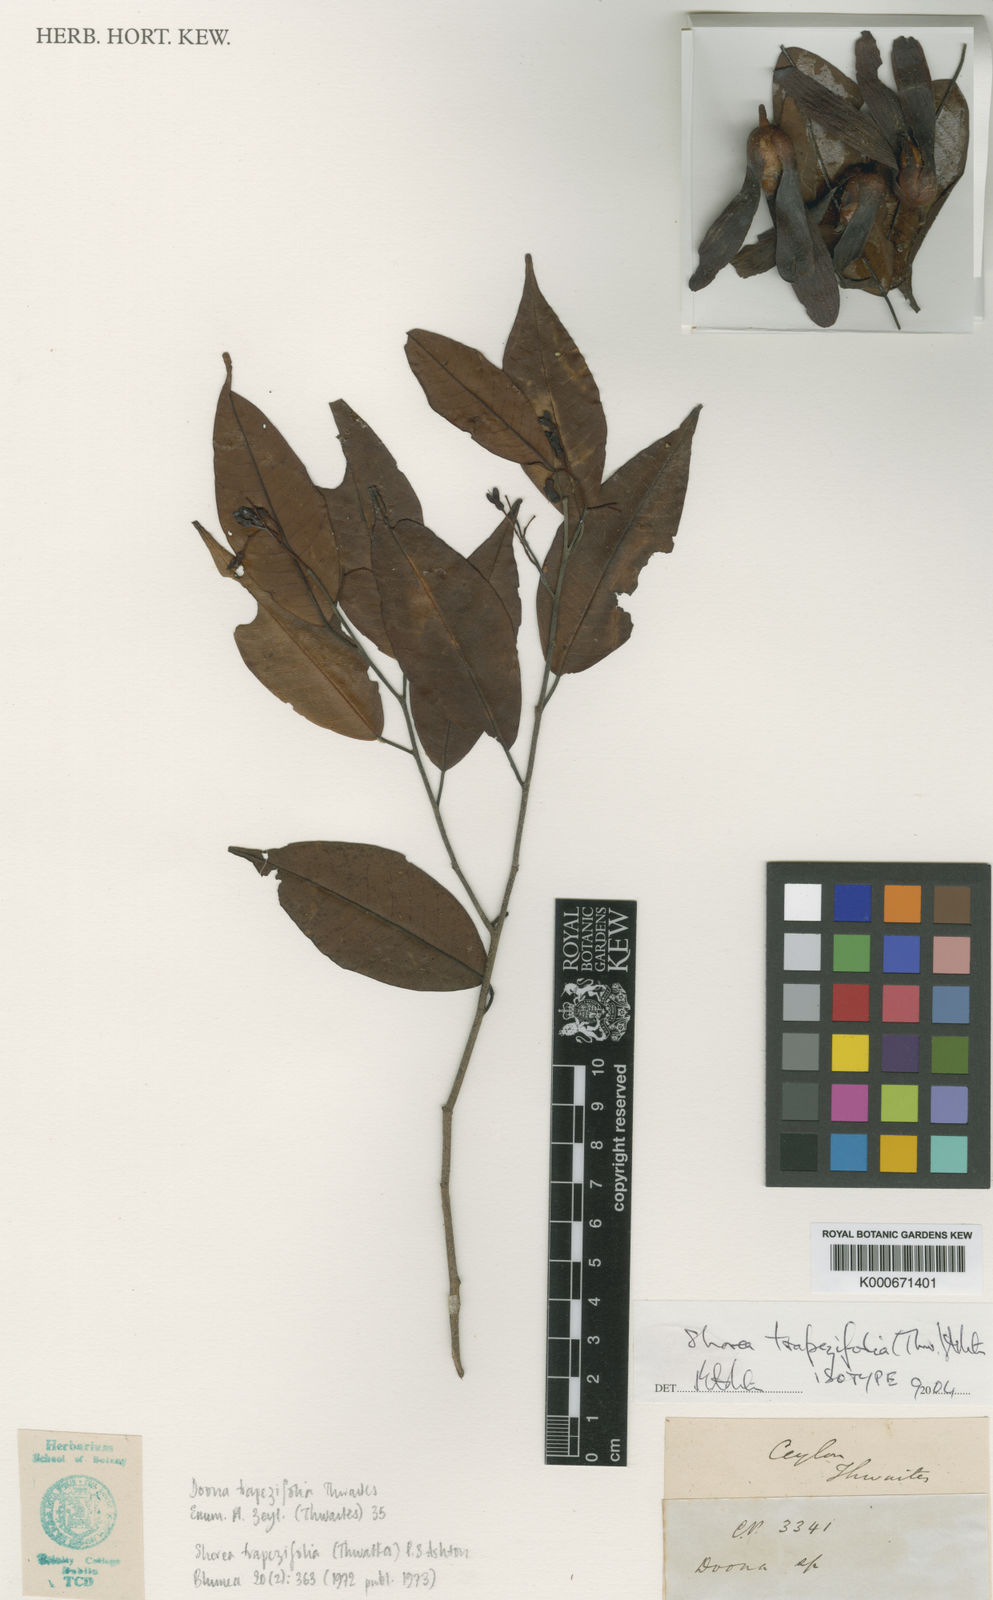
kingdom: Plantae
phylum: Tracheophyta
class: Magnoliopsida
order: Malvales
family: Dipterocarpaceae
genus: Doona
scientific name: Doona trapezifolia
